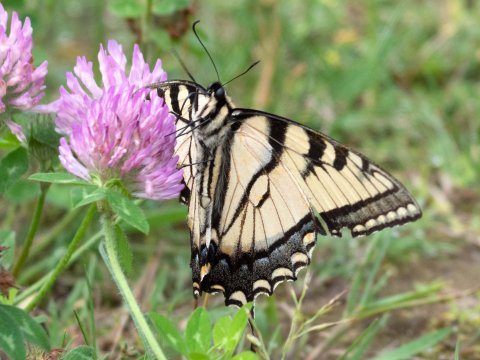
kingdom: Animalia
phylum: Arthropoda
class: Insecta
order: Lepidoptera
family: Papilionidae
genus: Papilio
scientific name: Papilio
